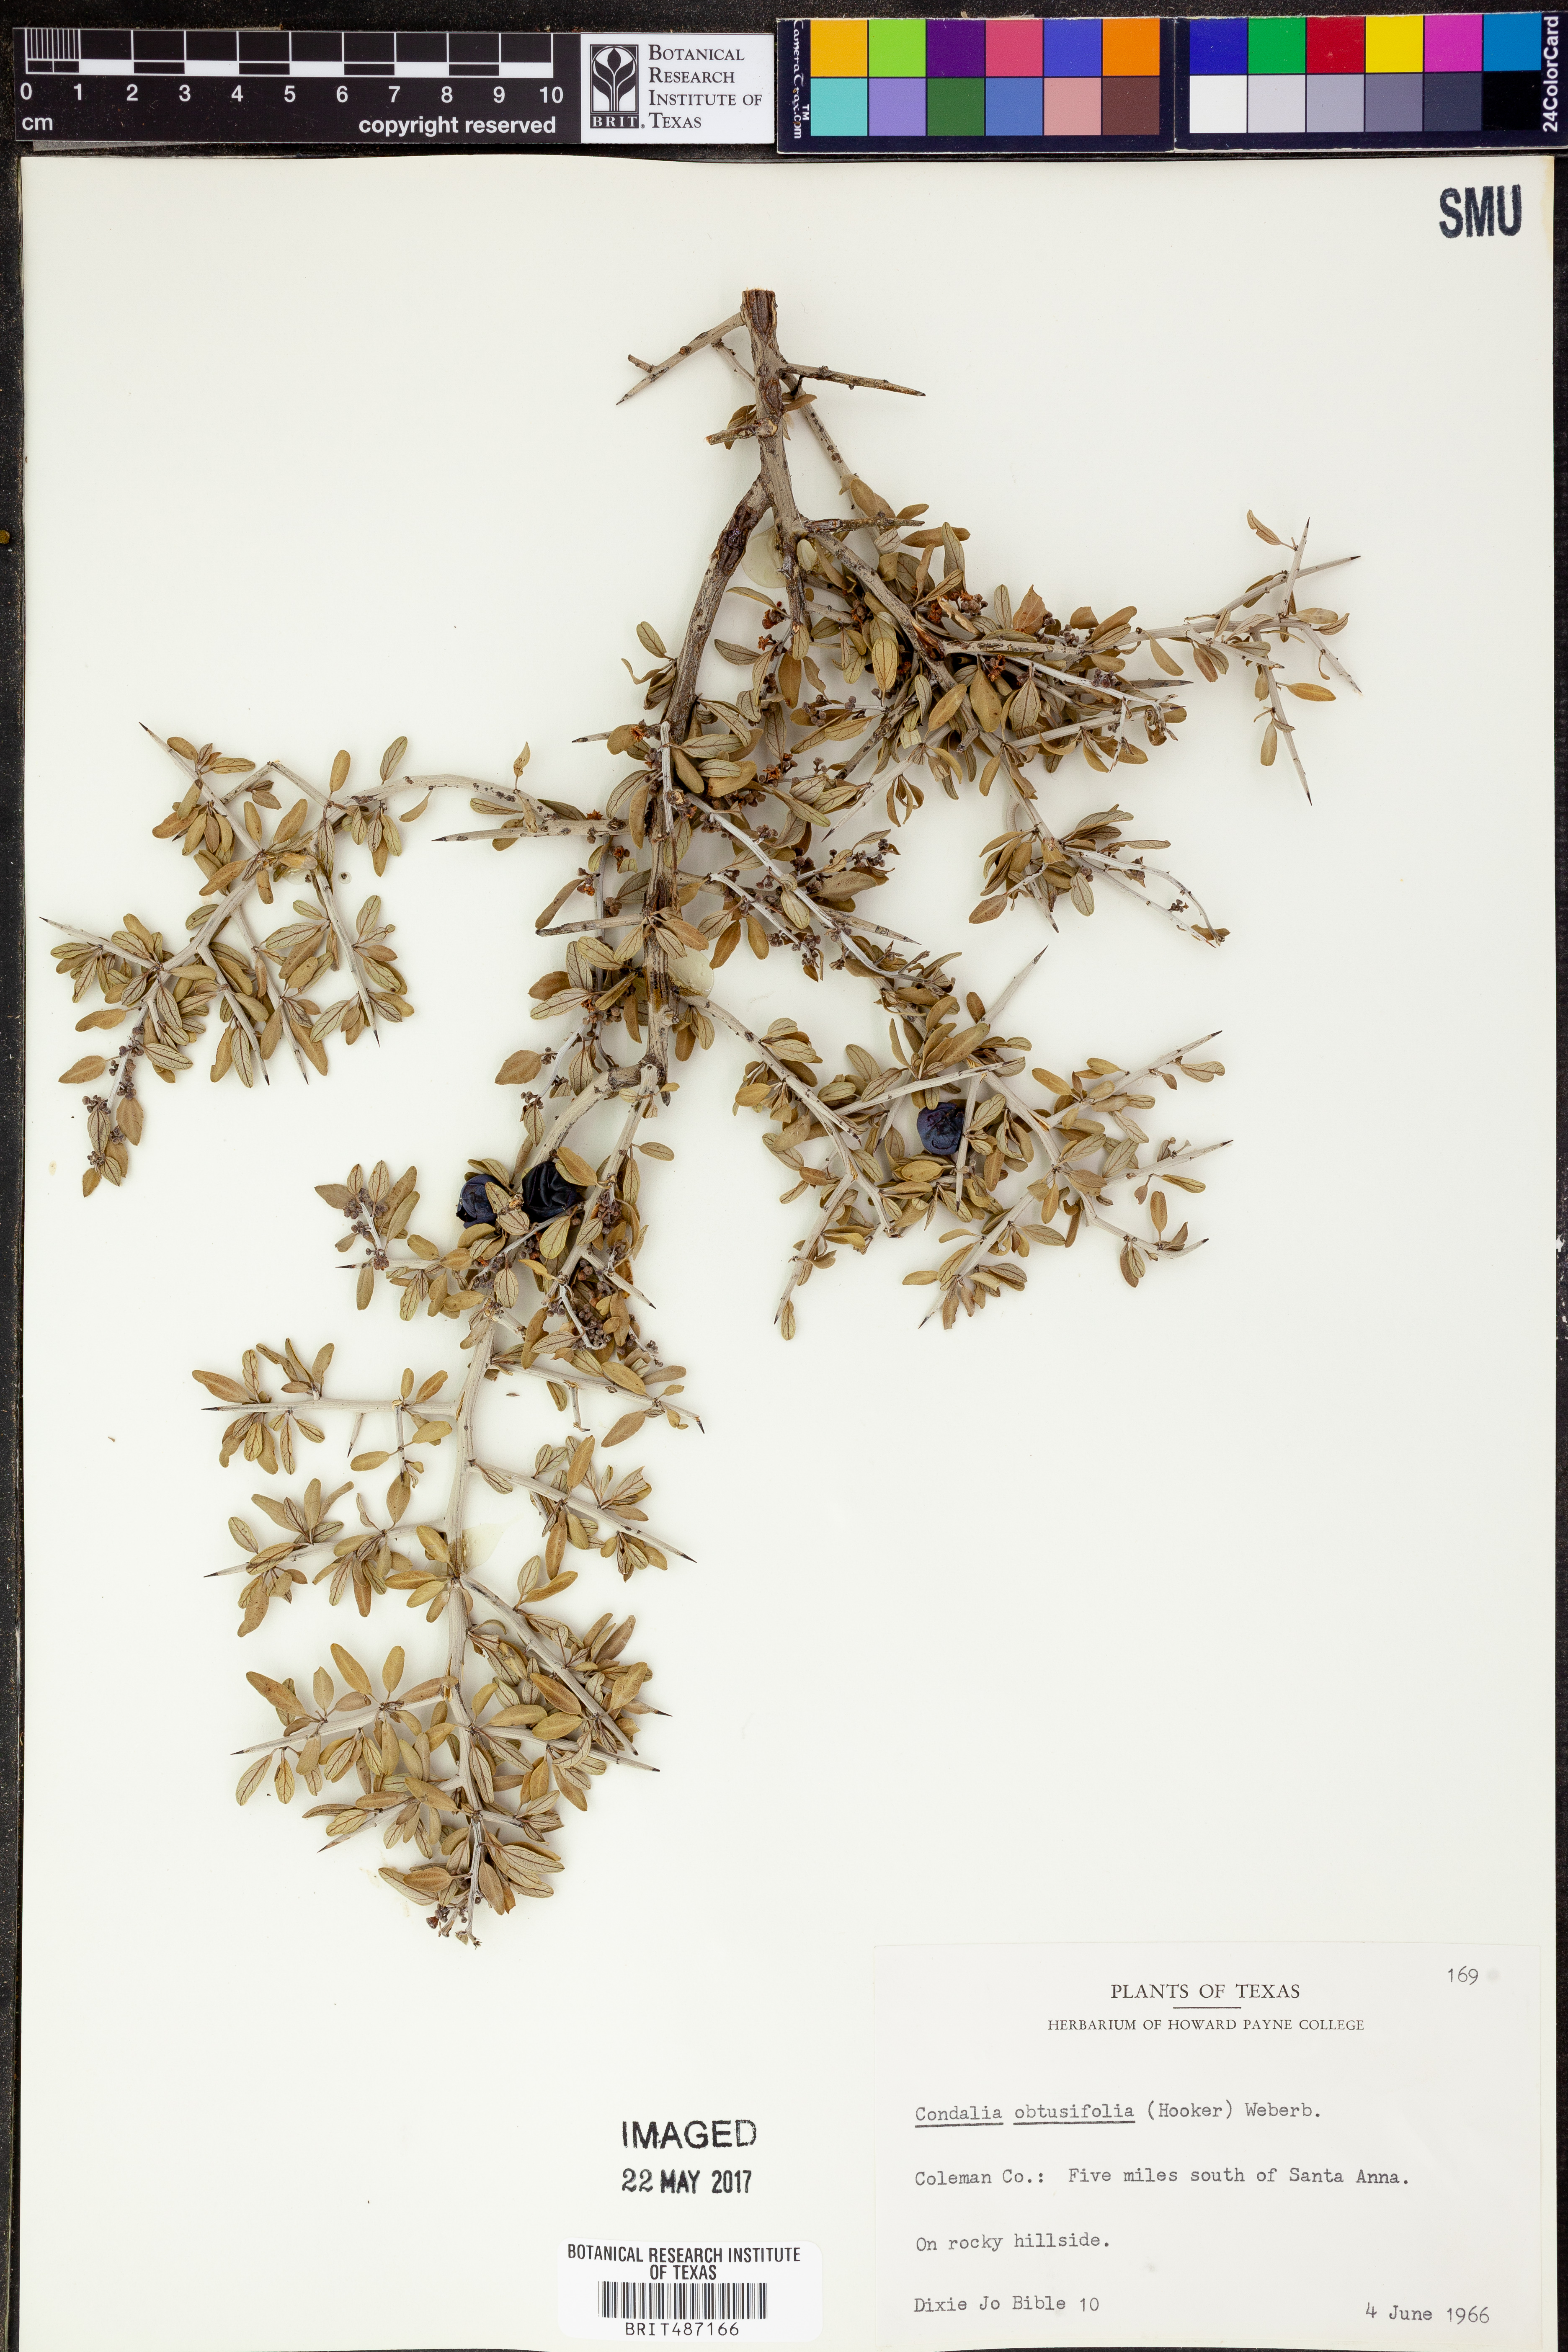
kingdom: Plantae
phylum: Tracheophyta
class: Magnoliopsida
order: Rosales
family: Rhamnaceae
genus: Sarcomphalus
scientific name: Sarcomphalus obtusifolius
